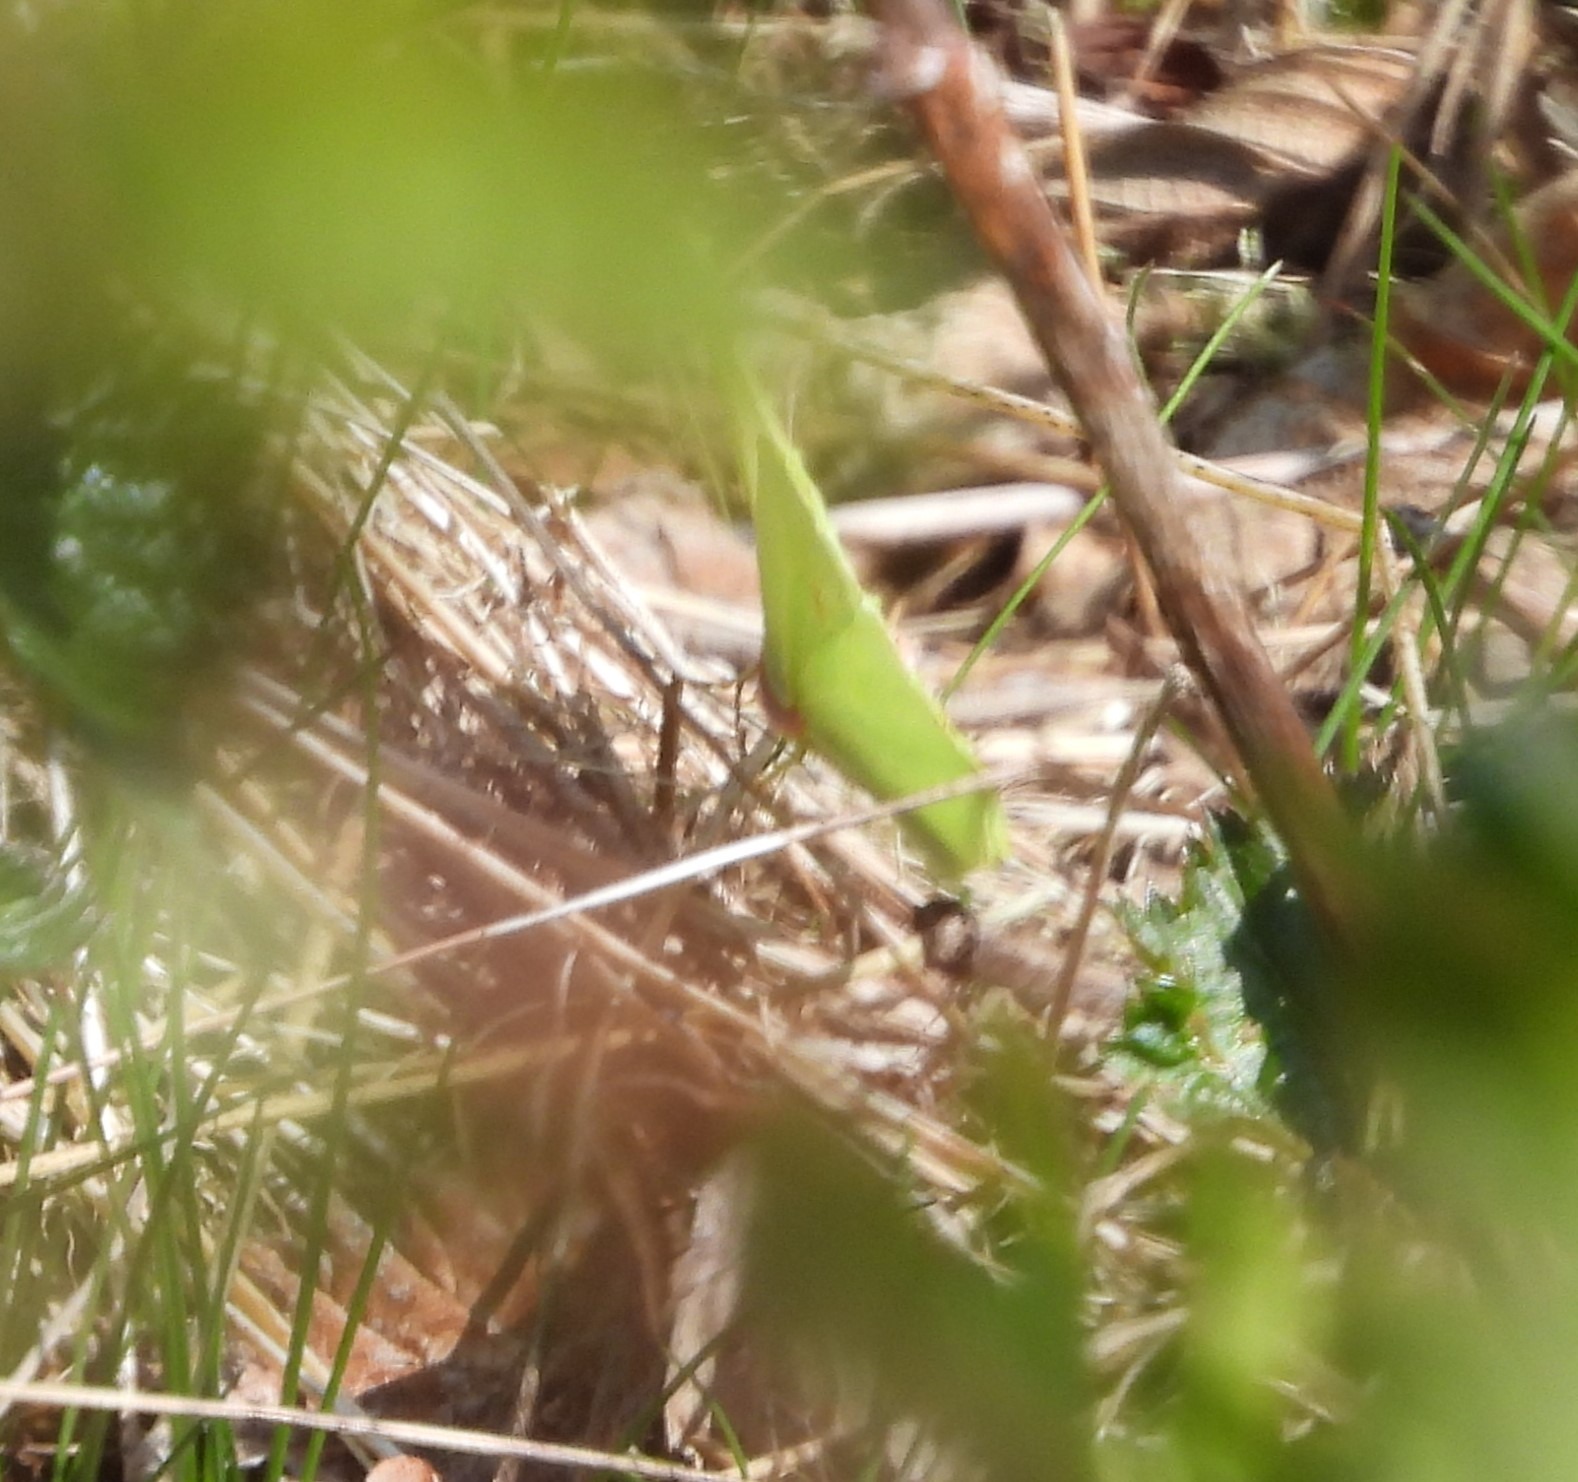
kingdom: Animalia
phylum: Arthropoda
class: Insecta
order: Lepidoptera
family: Pieridae
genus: Gonepteryx
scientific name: Gonepteryx rhamni
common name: Citronsommerfugl
